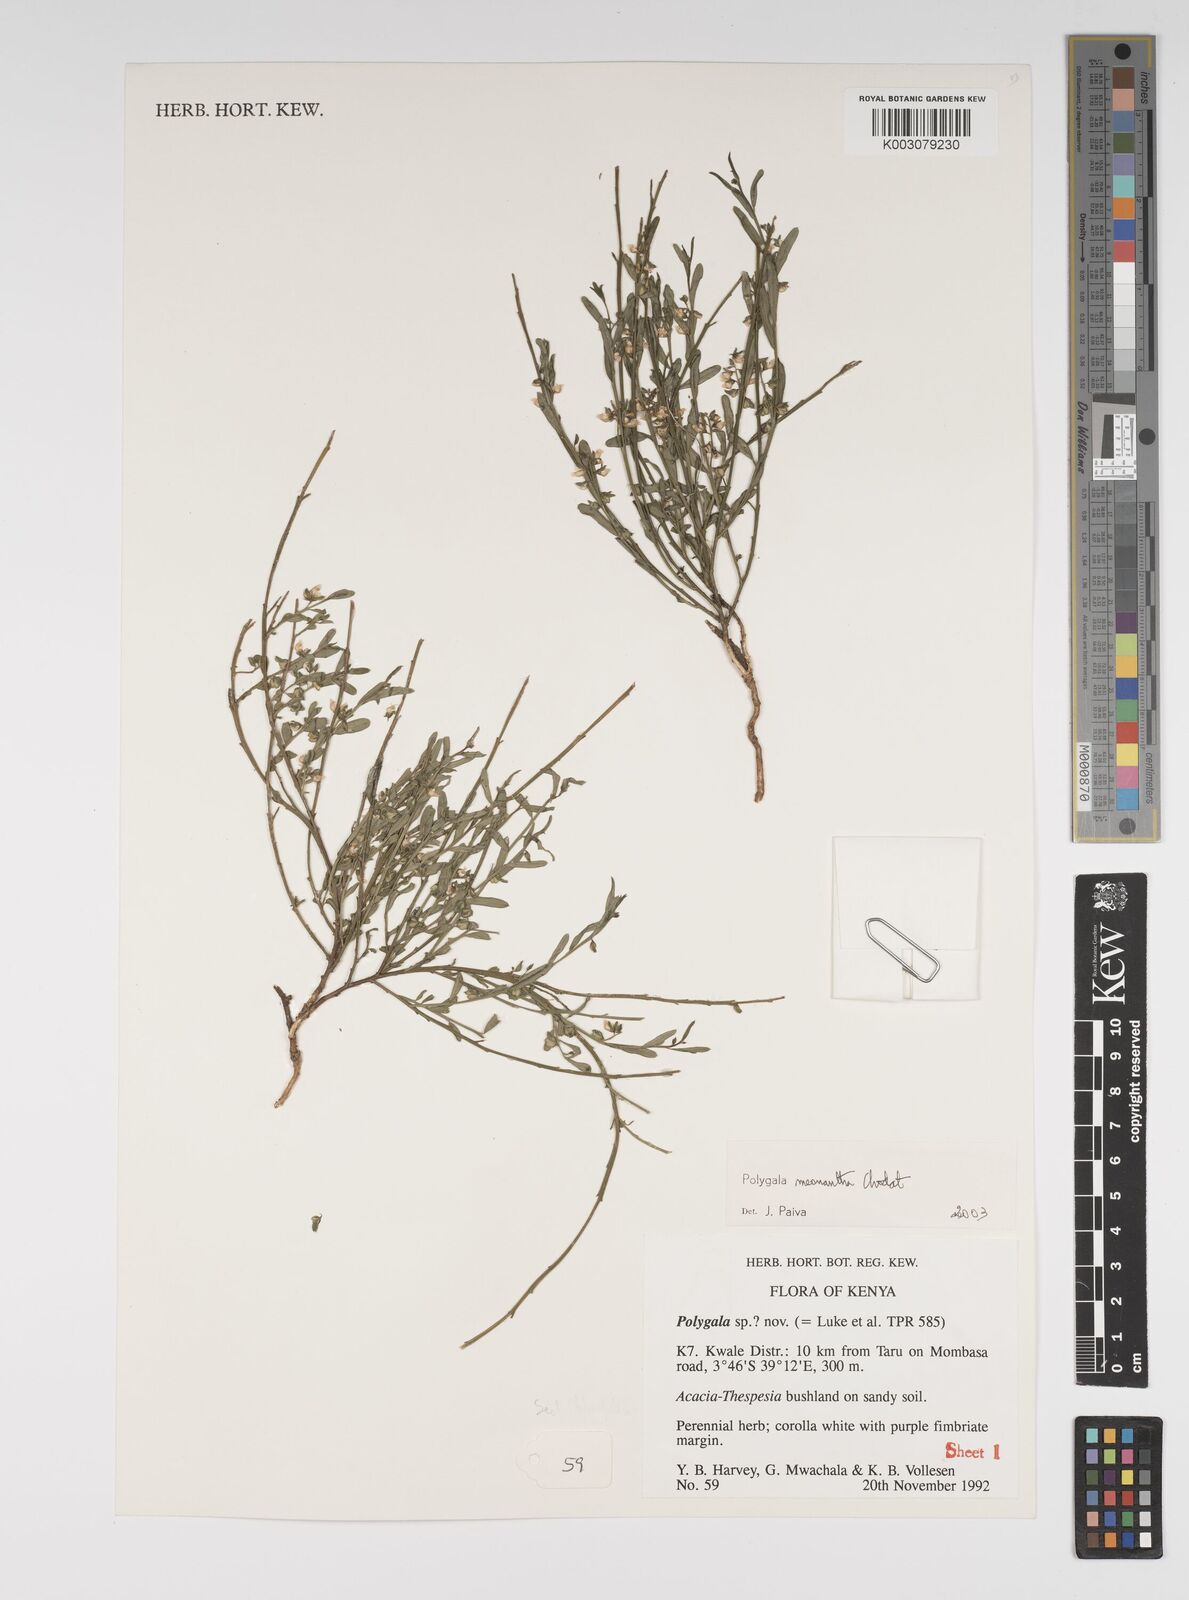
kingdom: Plantae
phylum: Tracheophyta
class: Magnoliopsida
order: Fabales
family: Polygalaceae
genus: Polygala
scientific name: Polygala meonantha
